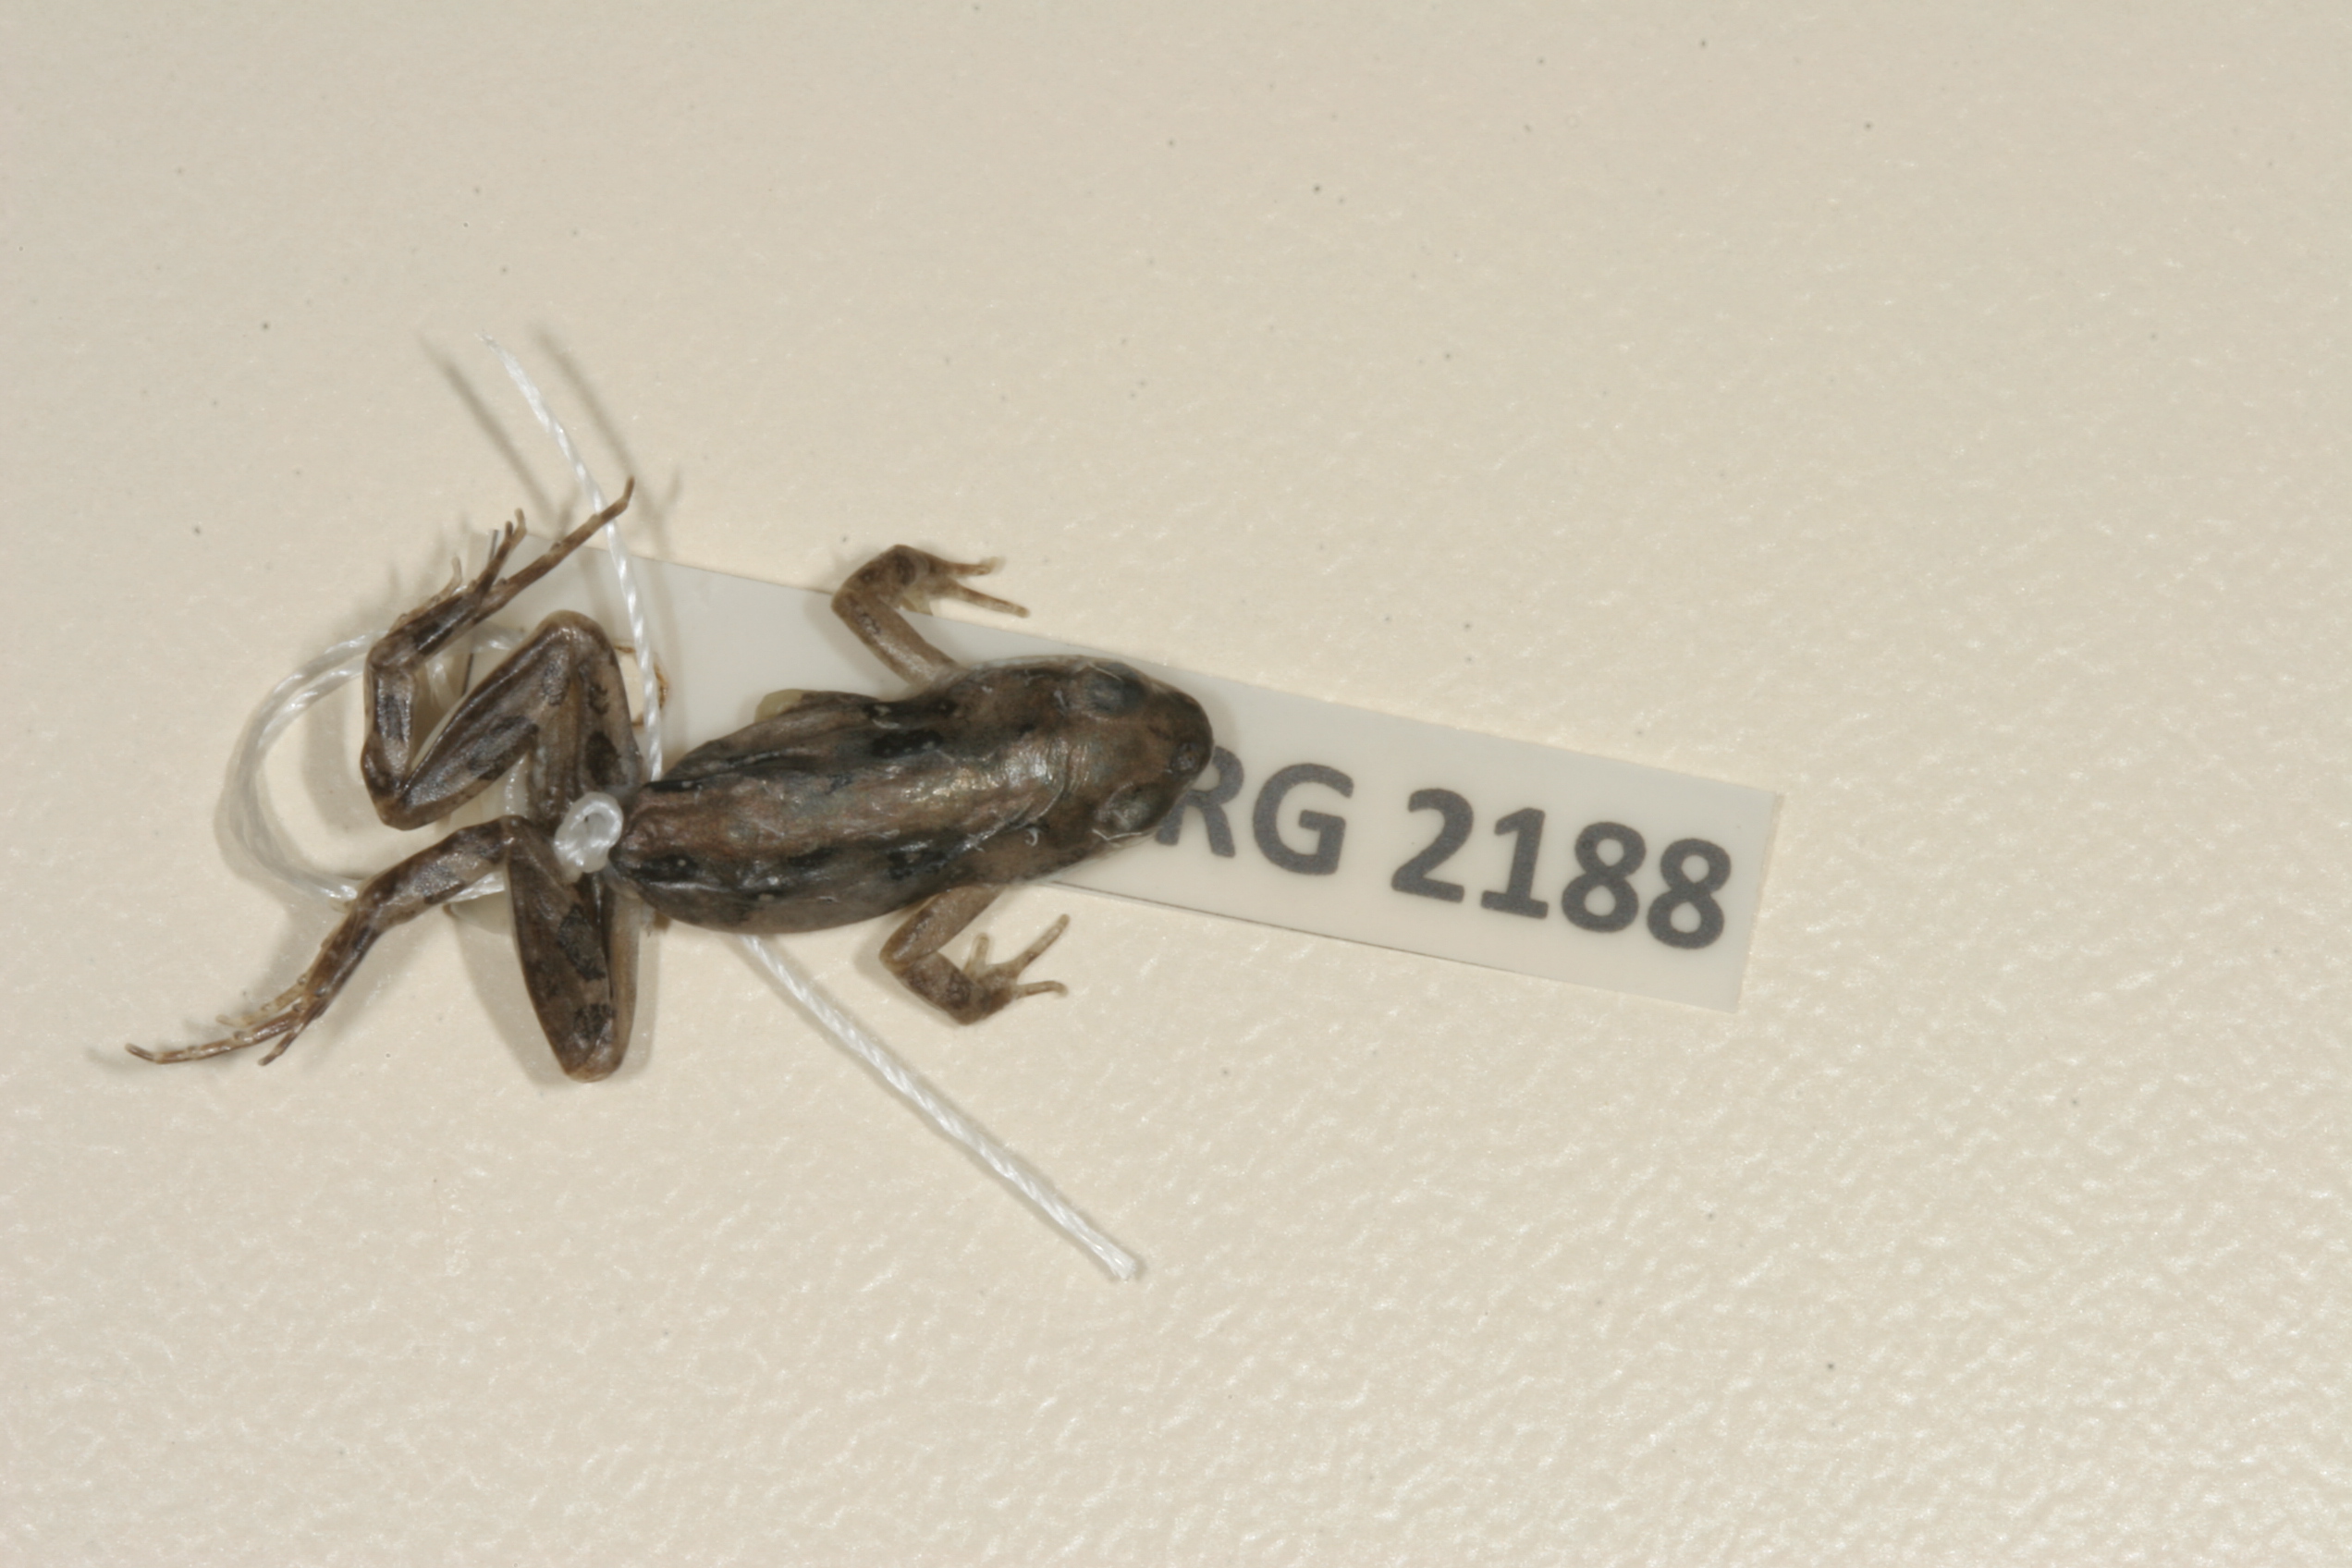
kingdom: Animalia
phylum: Chordata
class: Amphibia
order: Anura
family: Pyxicephalidae
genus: Cacosternum
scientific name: Cacosternum boettgeri
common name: Boettger's frog
